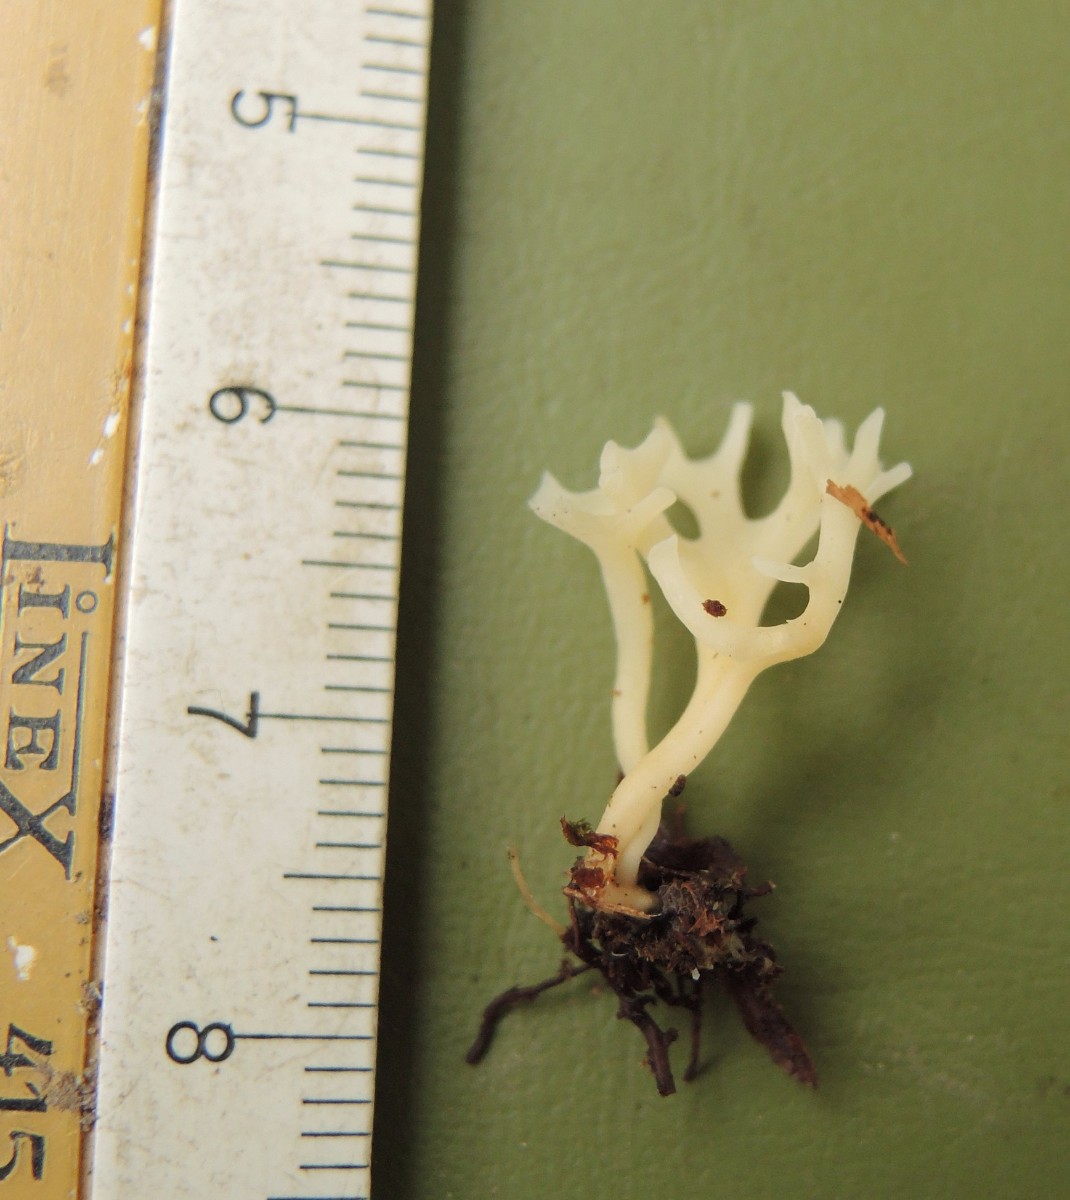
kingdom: Fungi
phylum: Basidiomycota
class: Agaricomycetes
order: Agaricales
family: Clavariaceae
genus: Ramariopsis
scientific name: Ramariopsis tenuicula
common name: spinkel køllesvamp
